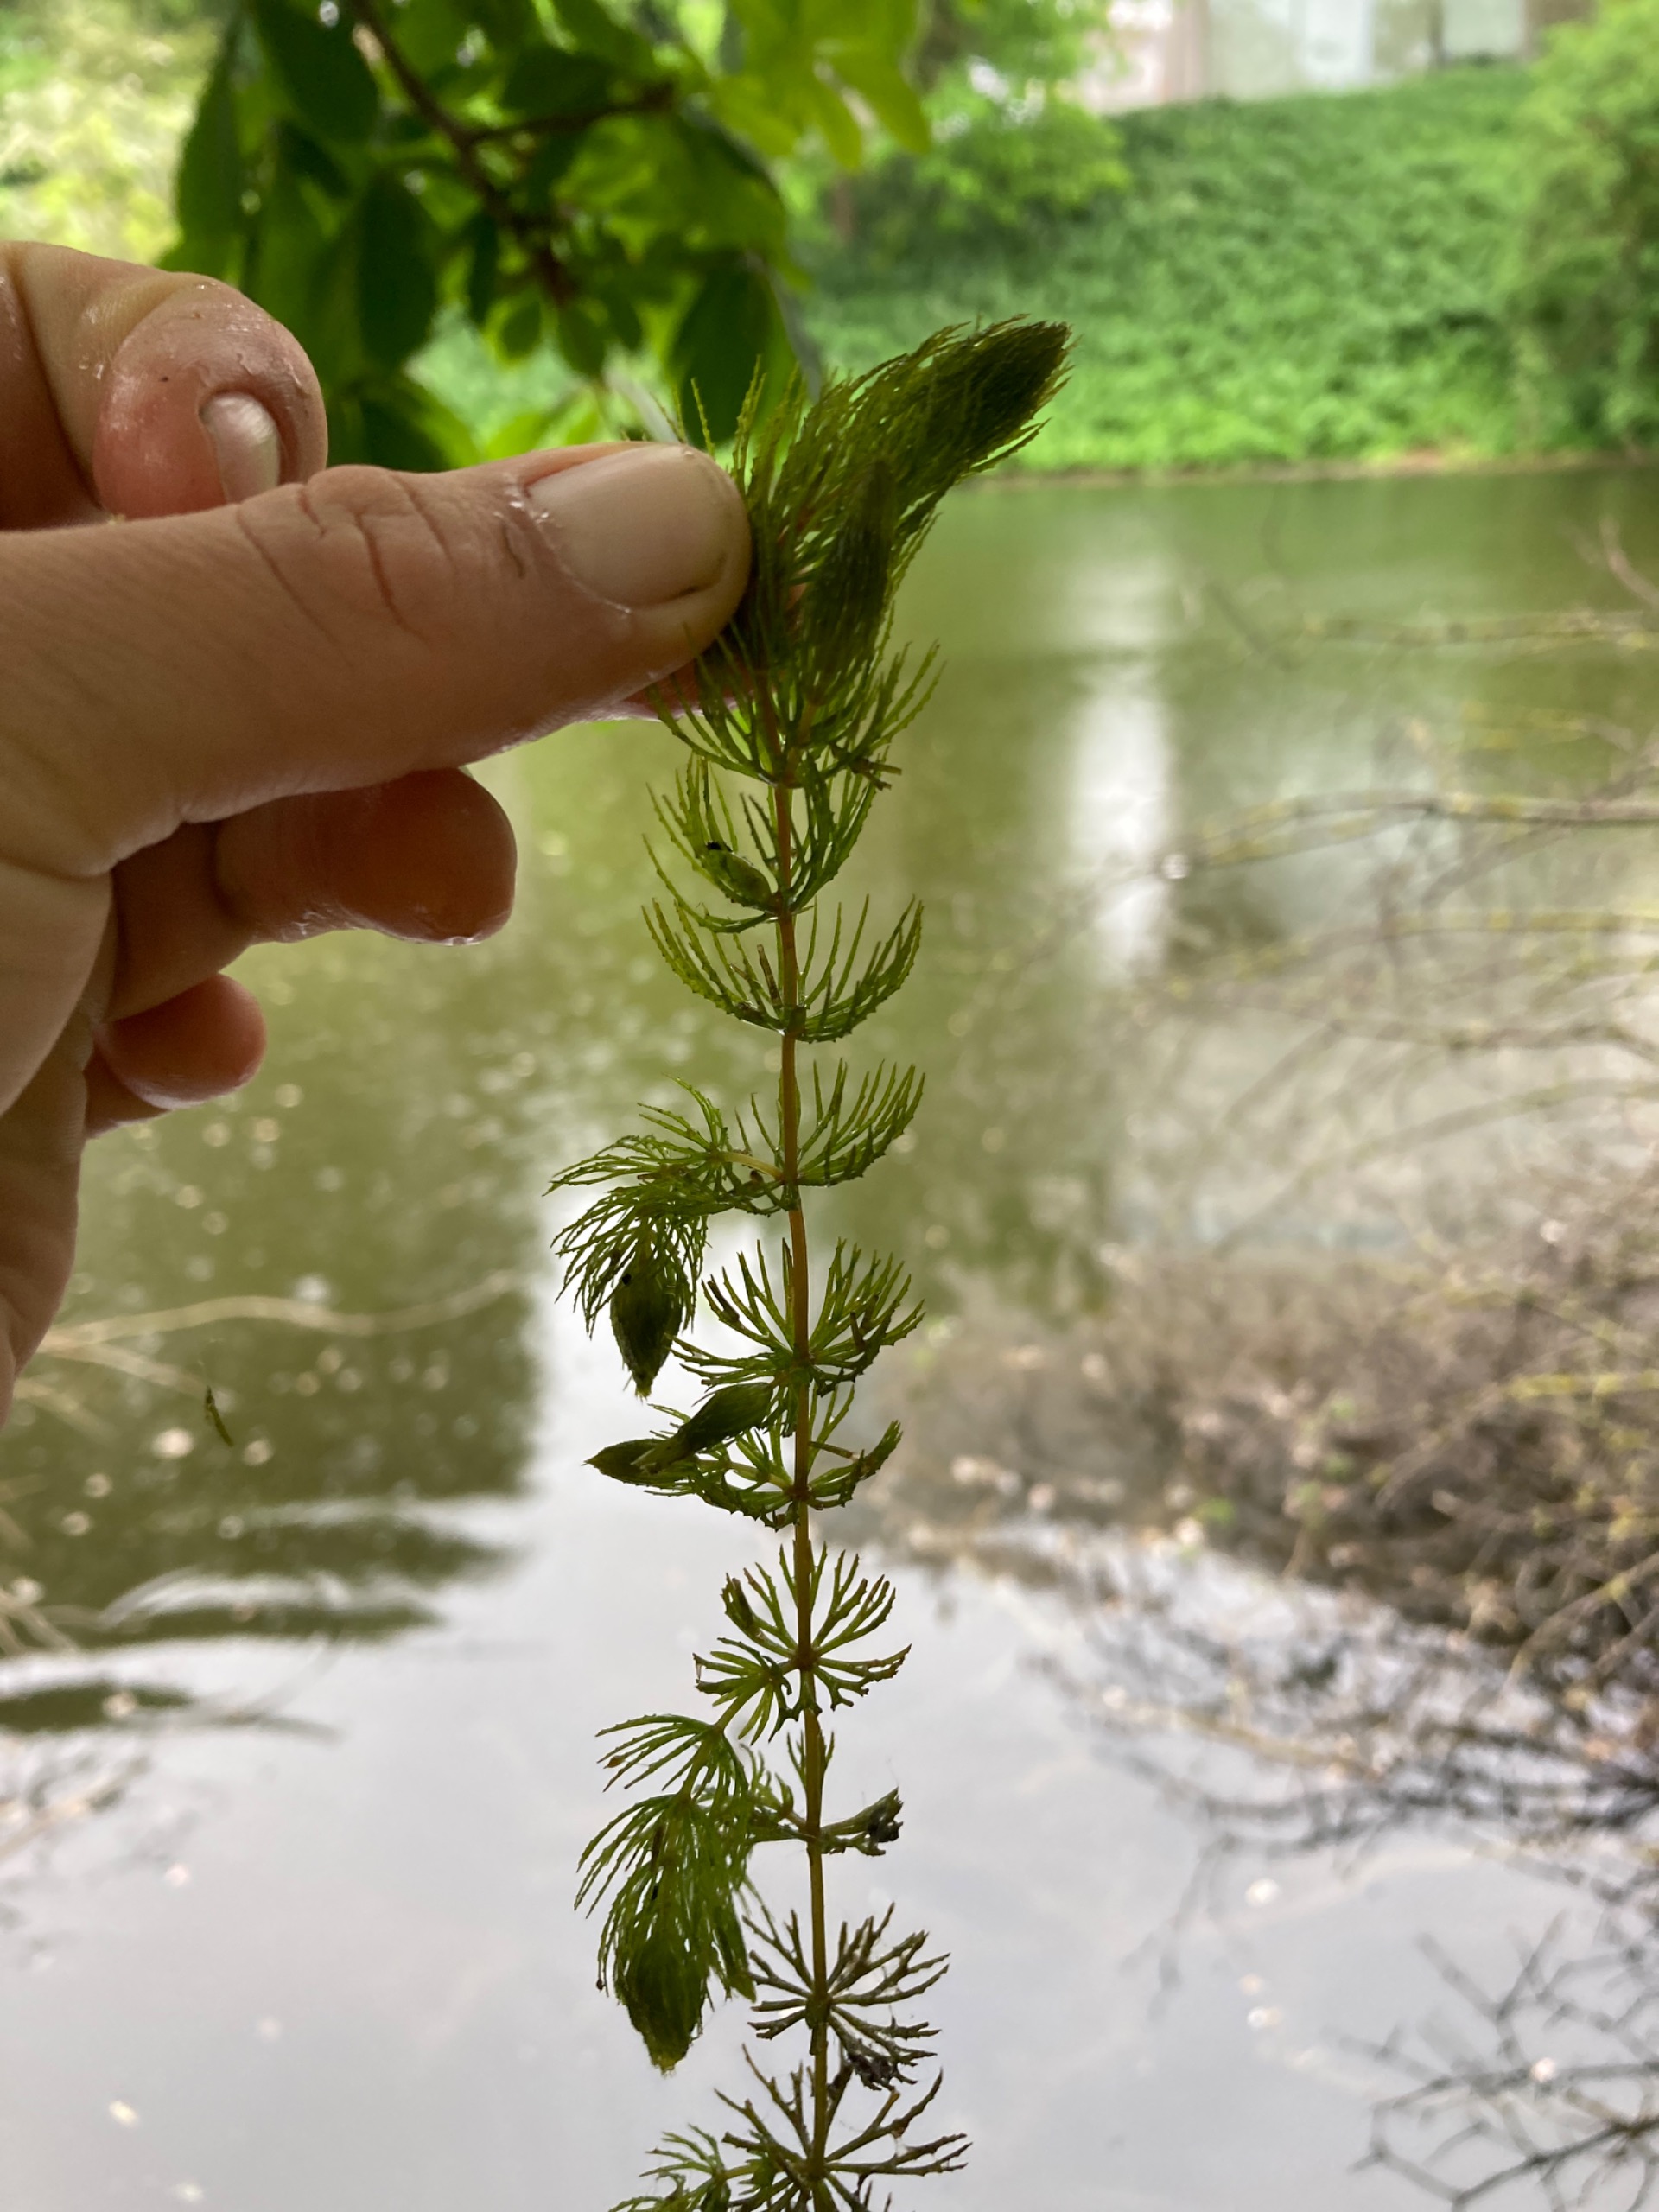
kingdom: Plantae
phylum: Tracheophyta
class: Magnoliopsida
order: Ceratophyllales
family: Ceratophyllaceae
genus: Ceratophyllum
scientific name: Ceratophyllum demersum
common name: Tornfrøet hornblad
